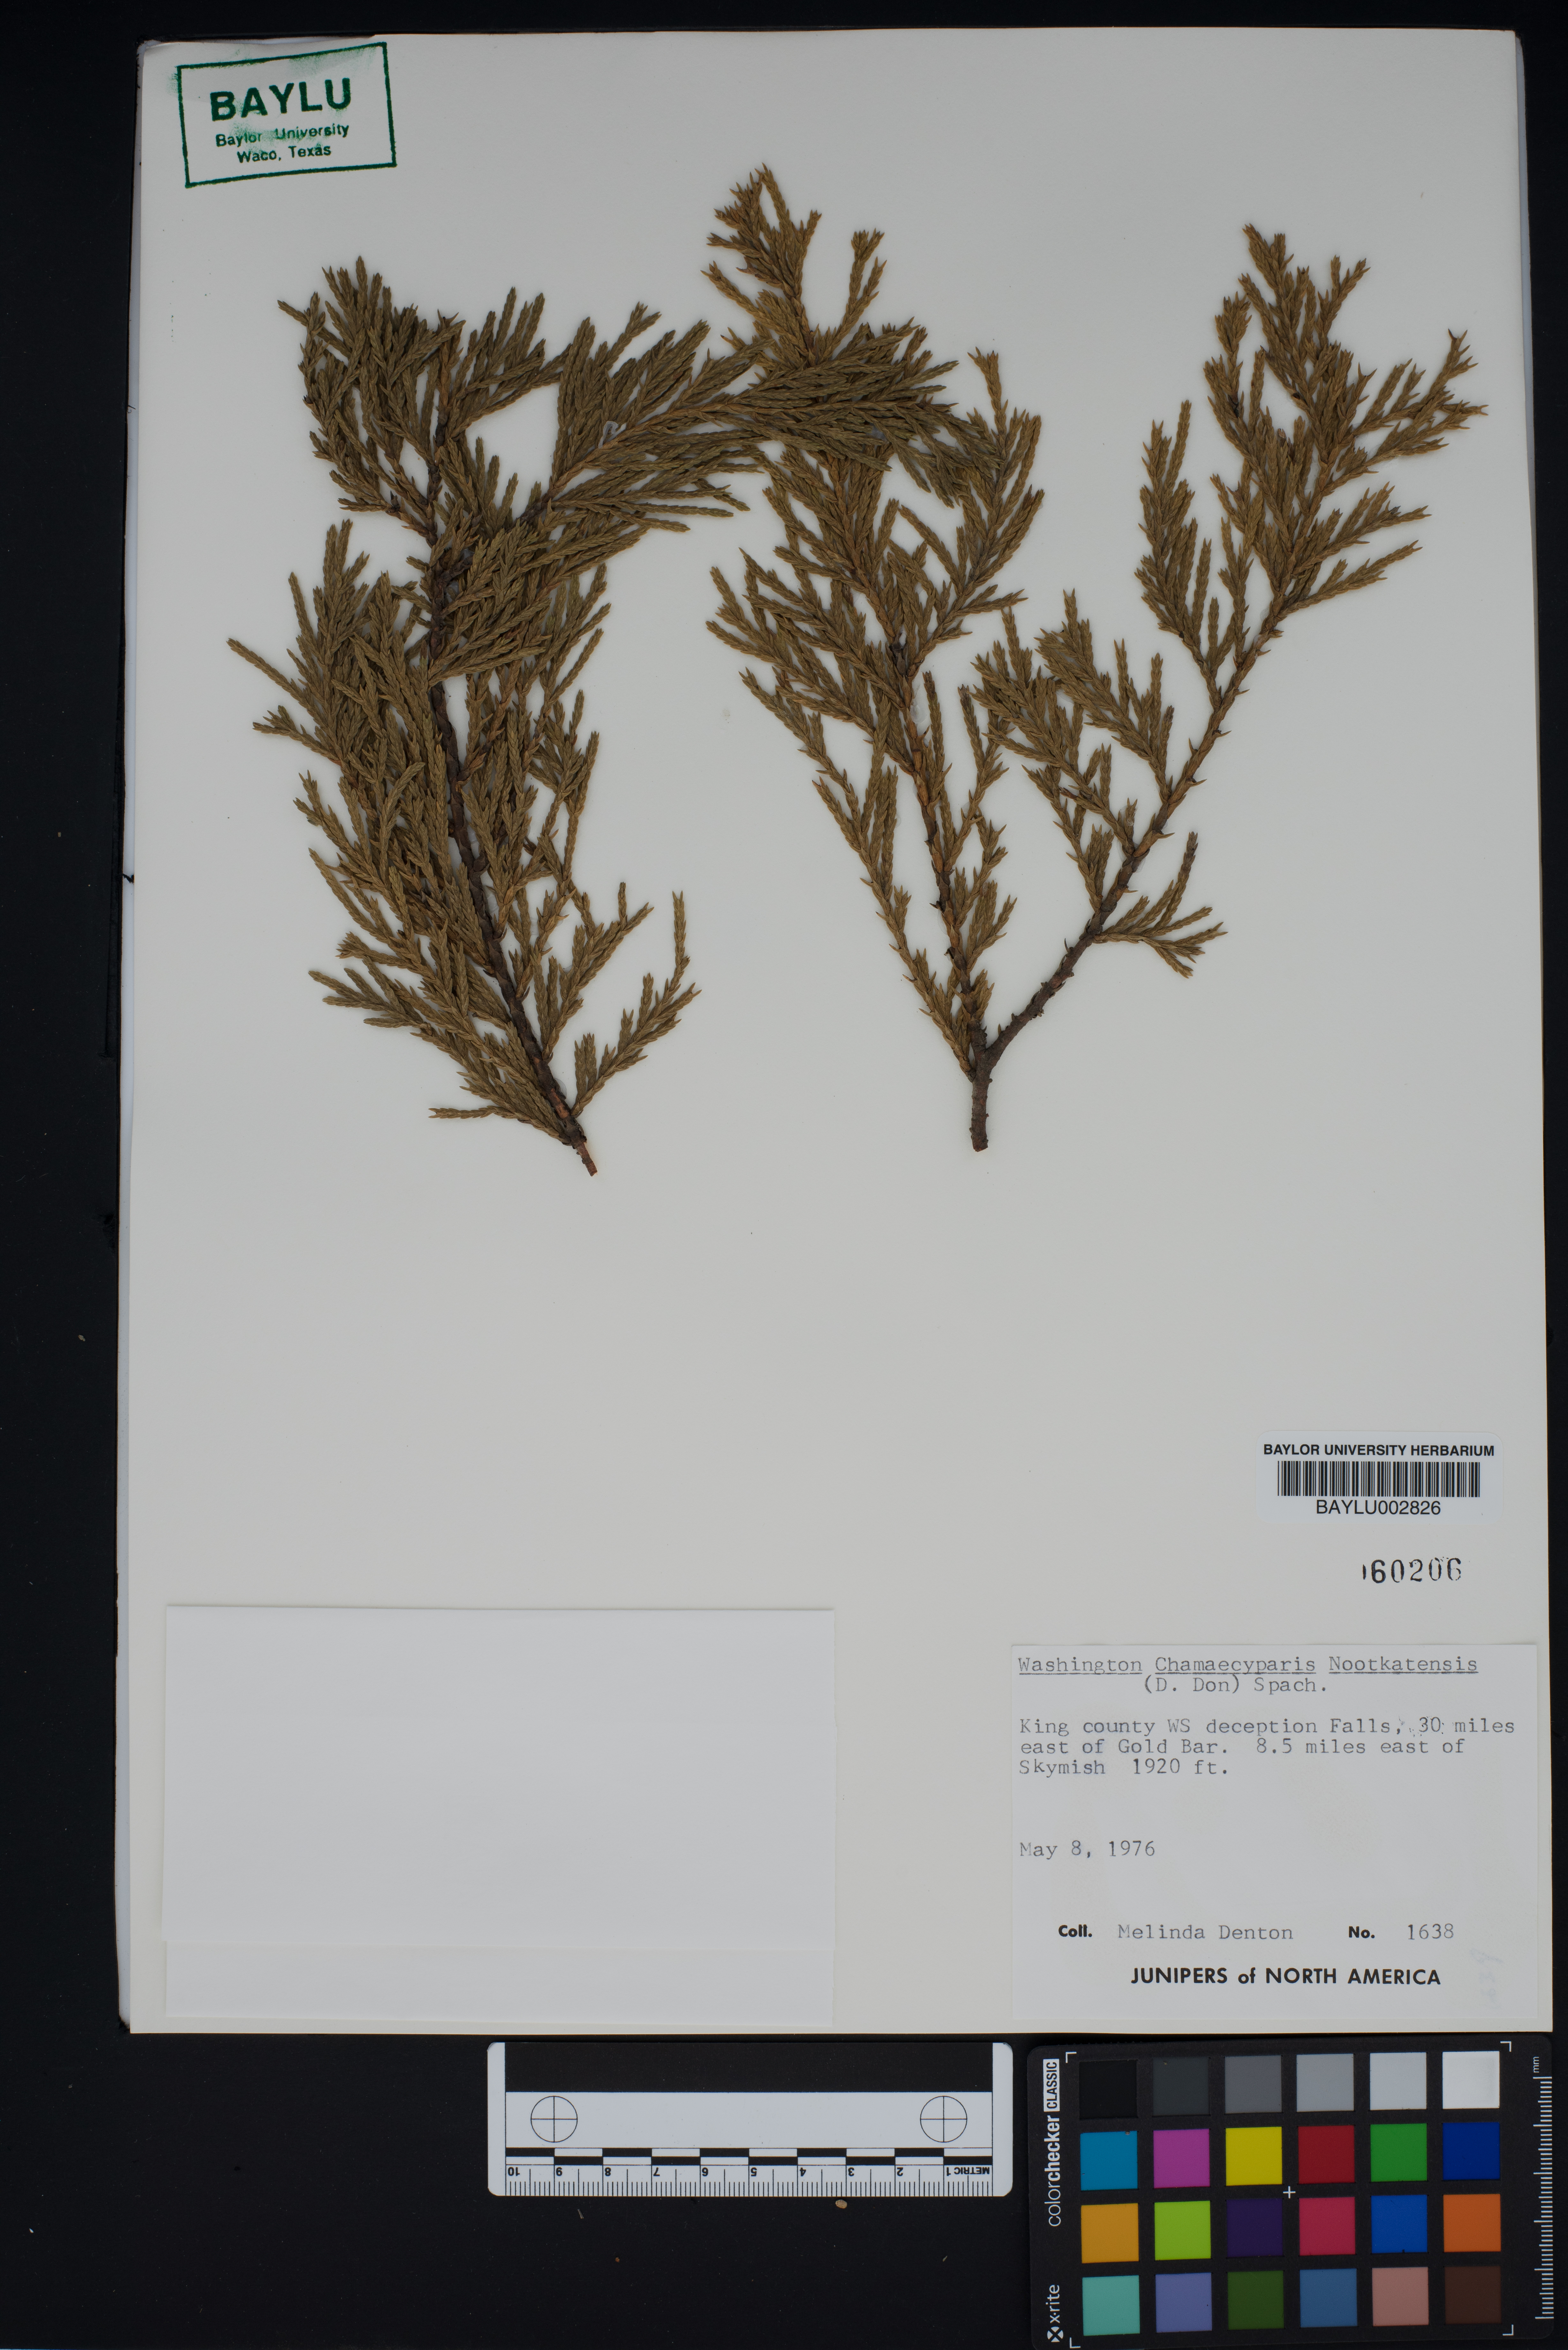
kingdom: Plantae
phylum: Tracheophyta
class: Pinopsida
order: Pinales
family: Cupressaceae
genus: Xanthocyparis
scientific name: Xanthocyparis nootkatensis
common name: Nootka cypress
